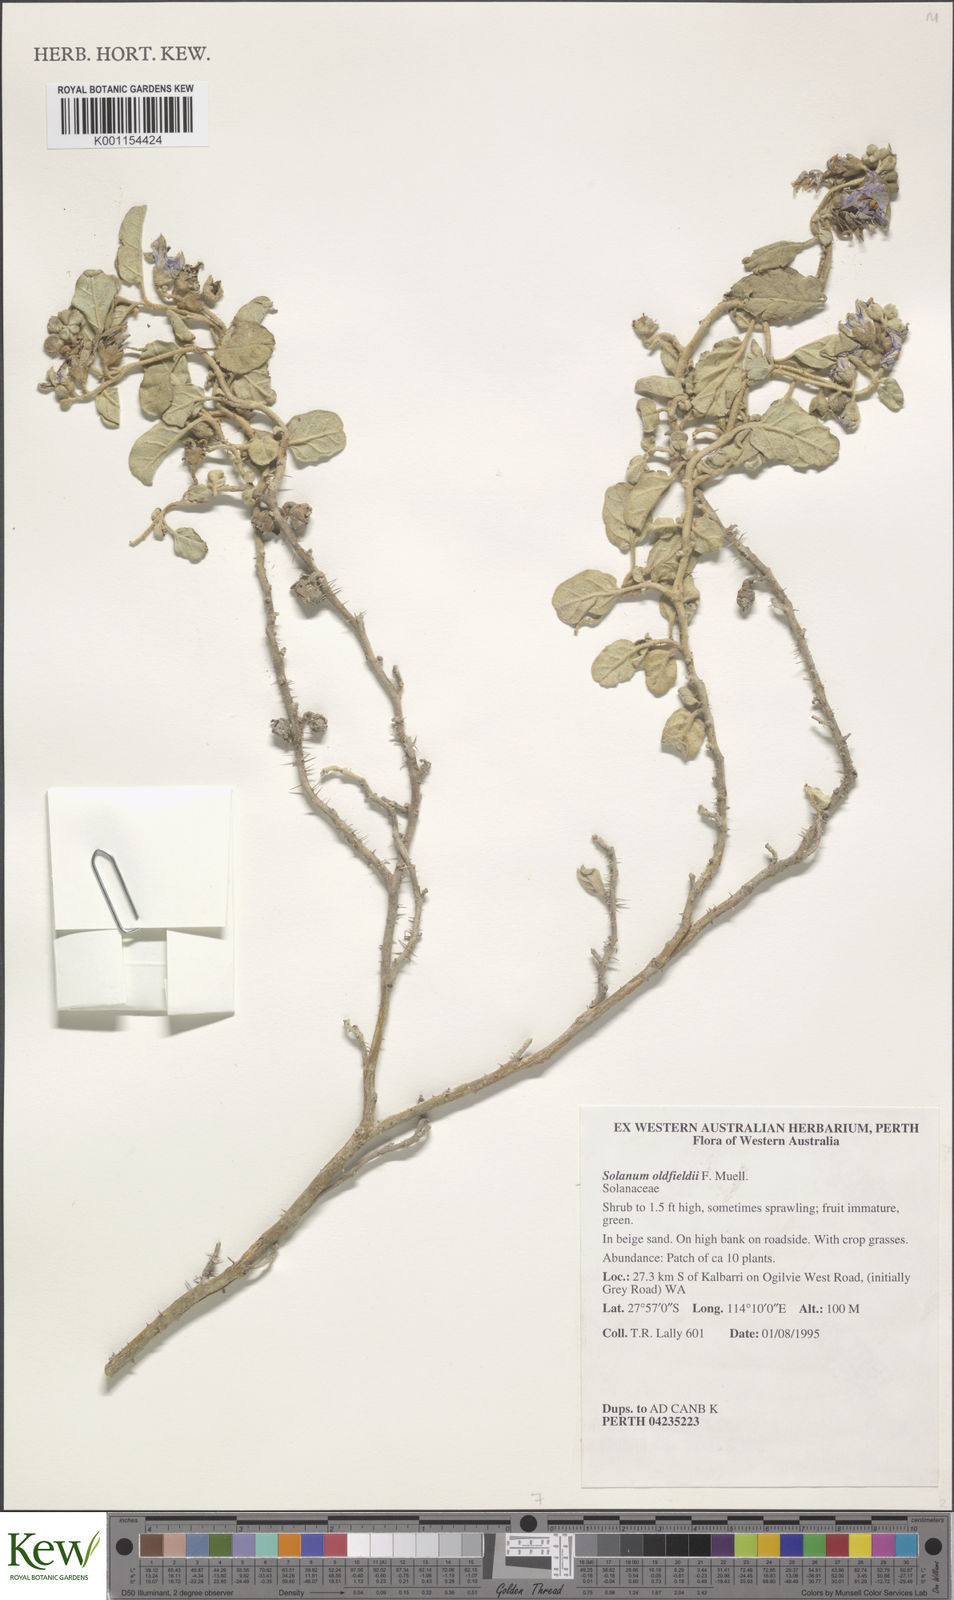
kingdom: Plantae
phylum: Tracheophyta
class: Magnoliopsida
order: Solanales
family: Solanaceae
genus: Solanum
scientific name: Solanum oldfieldii
